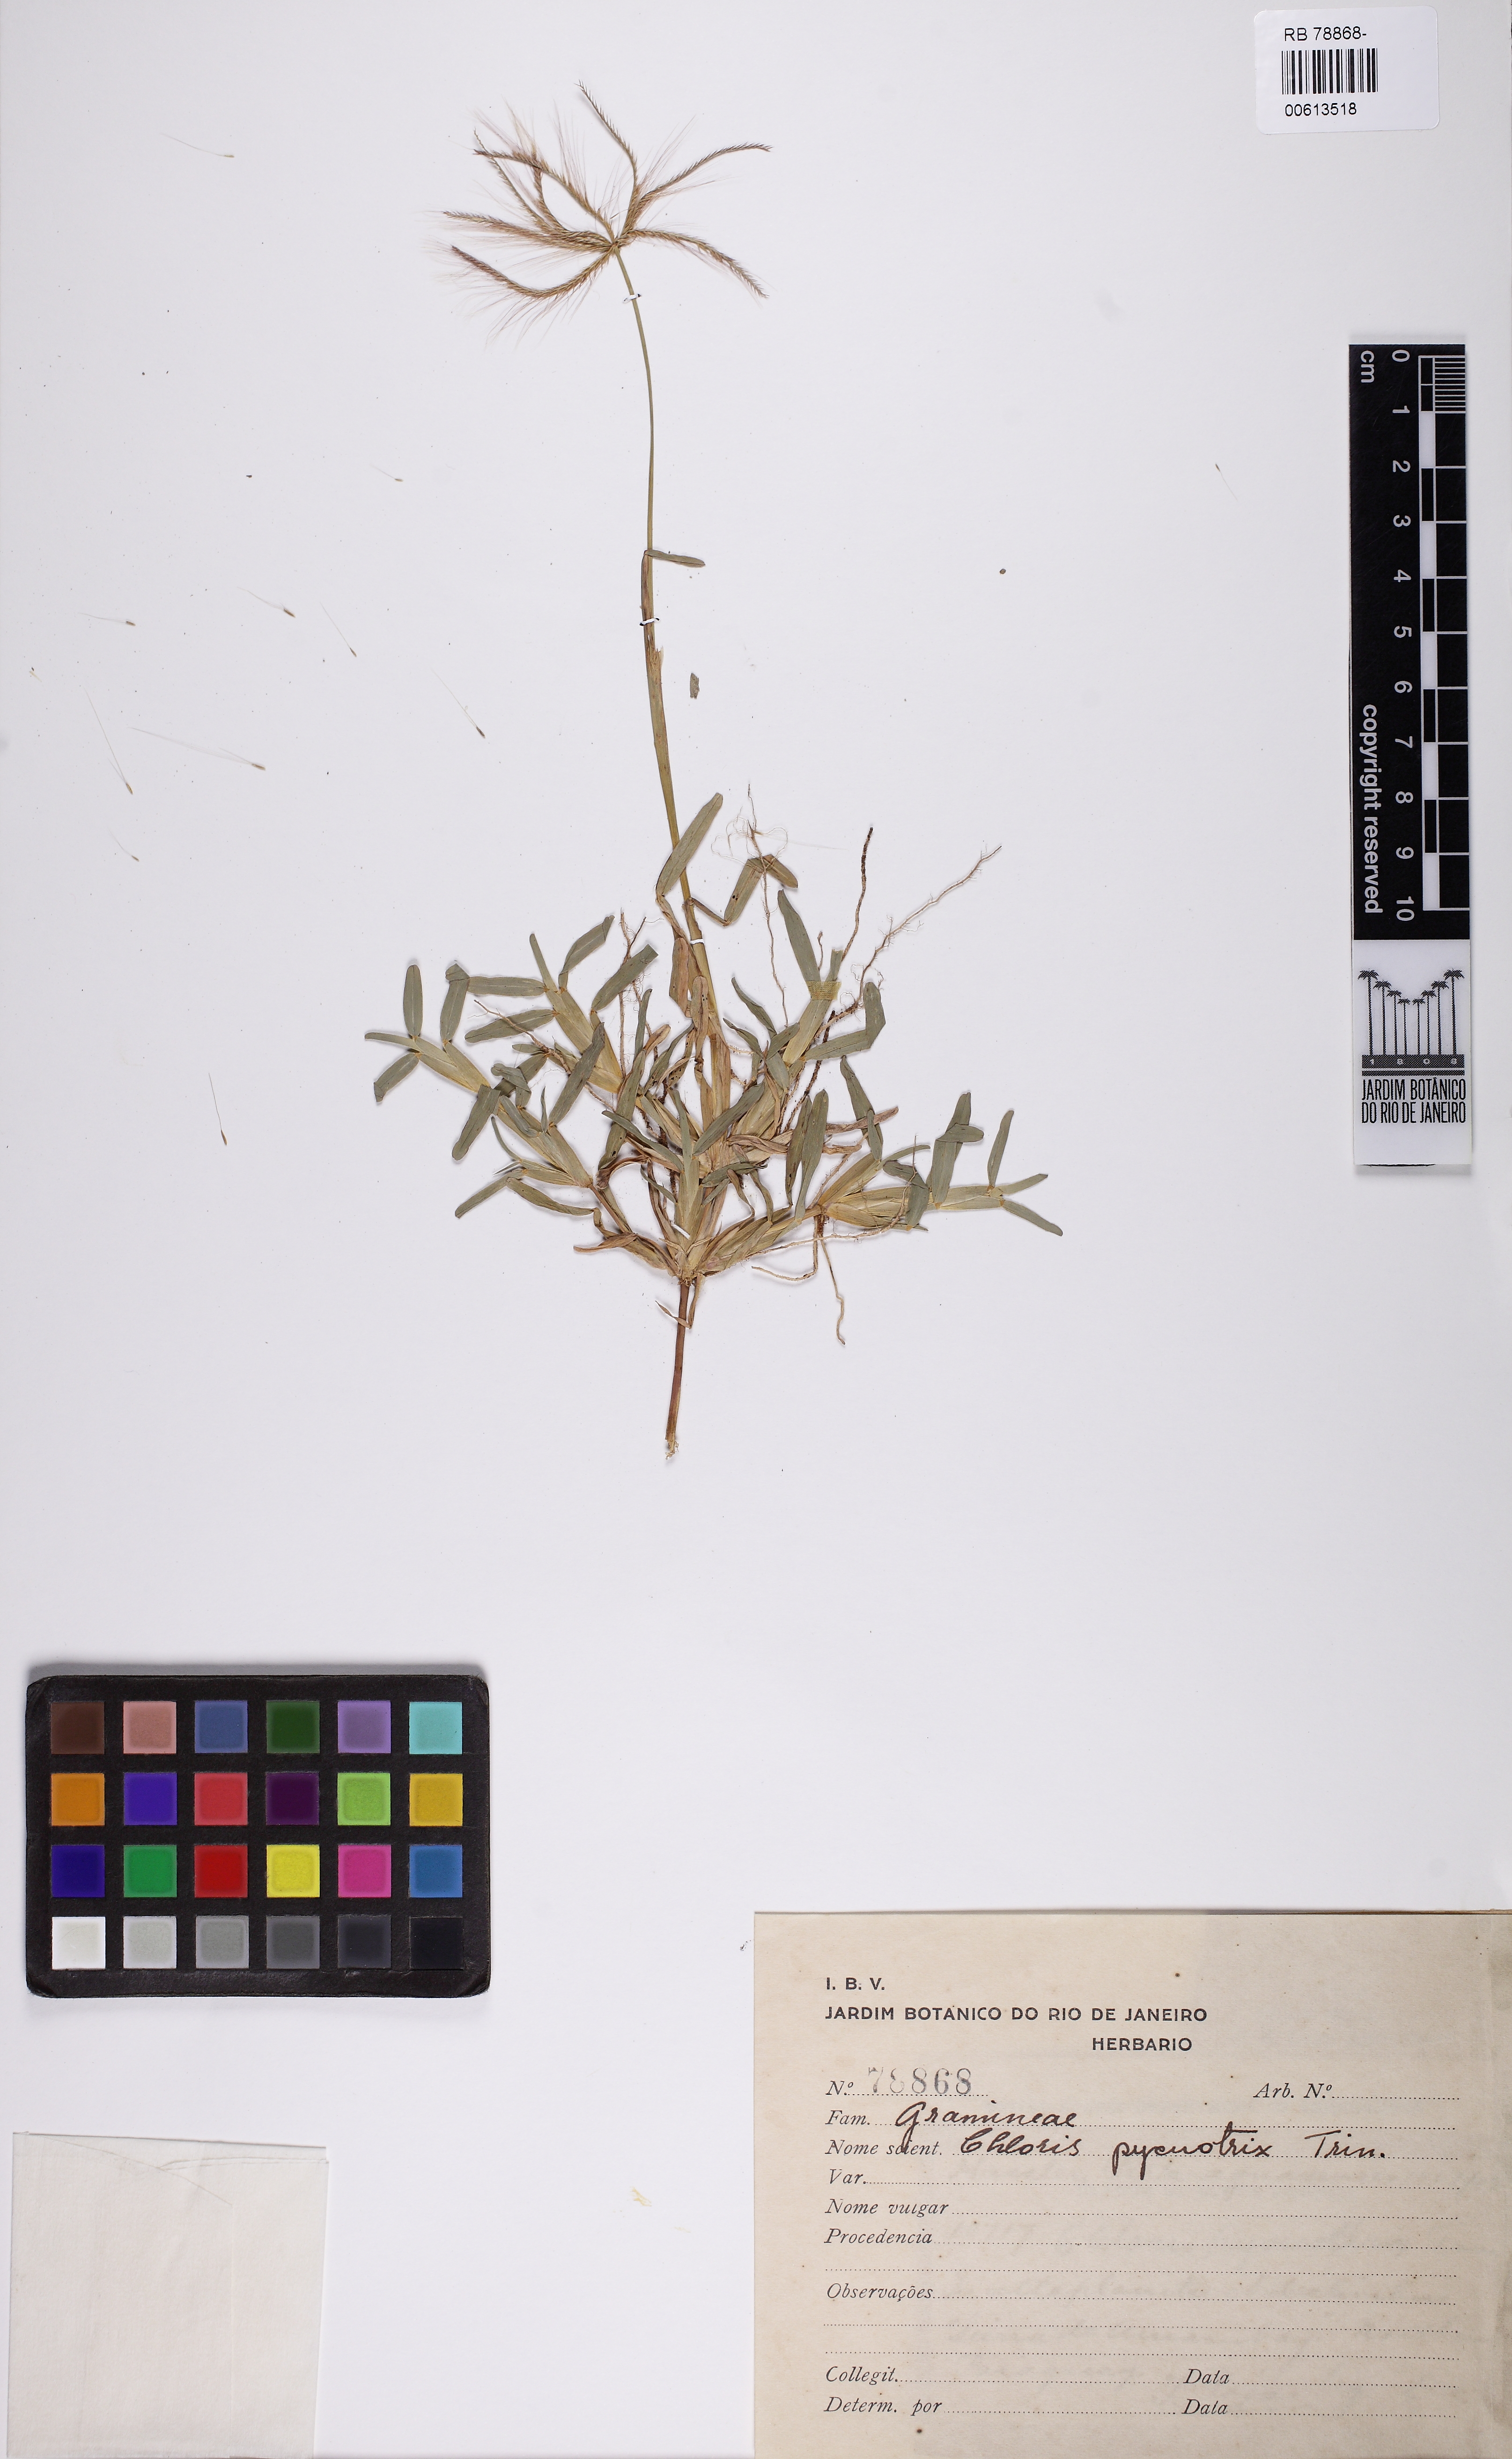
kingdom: Plantae
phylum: Tracheophyta
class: Liliopsida
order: Poales
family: Poaceae
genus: Chloris
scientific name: Chloris pycnothrix
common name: Spiderweb chloris
